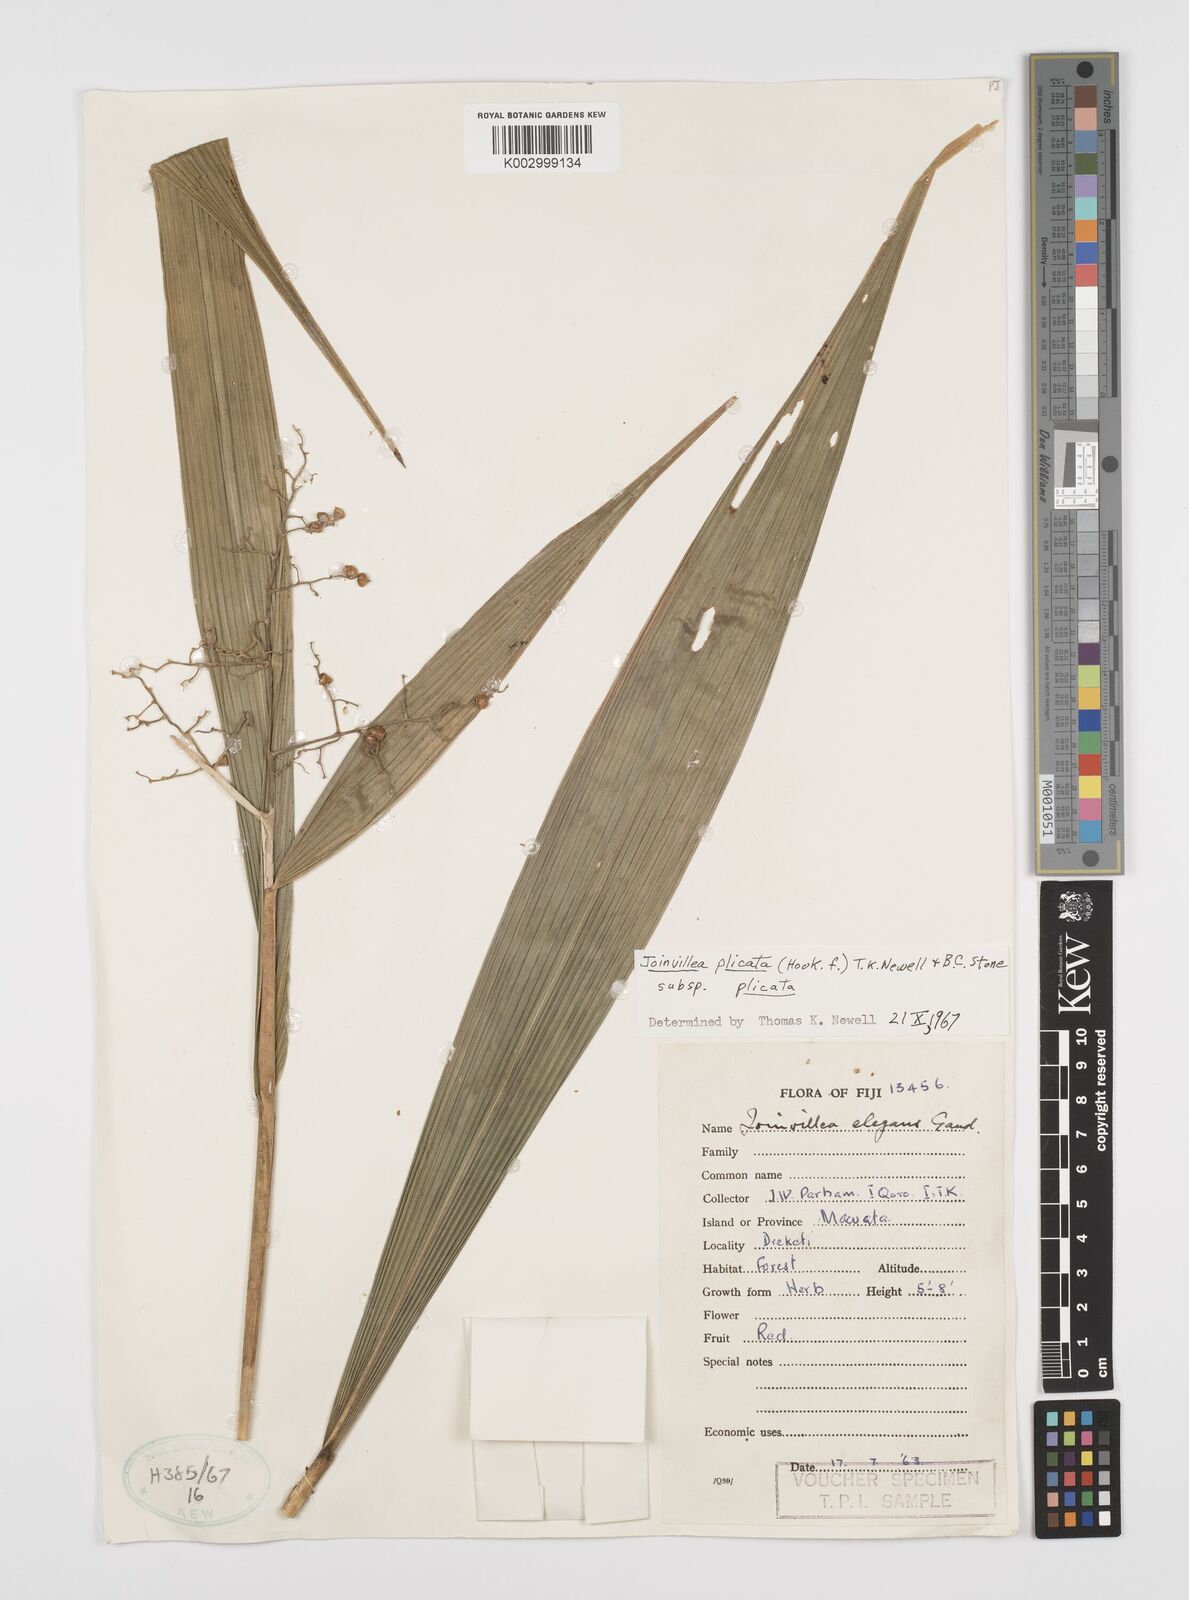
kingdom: Plantae
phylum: Tracheophyta
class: Liliopsida
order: Poales
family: Joinvilleaceae
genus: Joinvillea
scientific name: Joinvillea plicata
